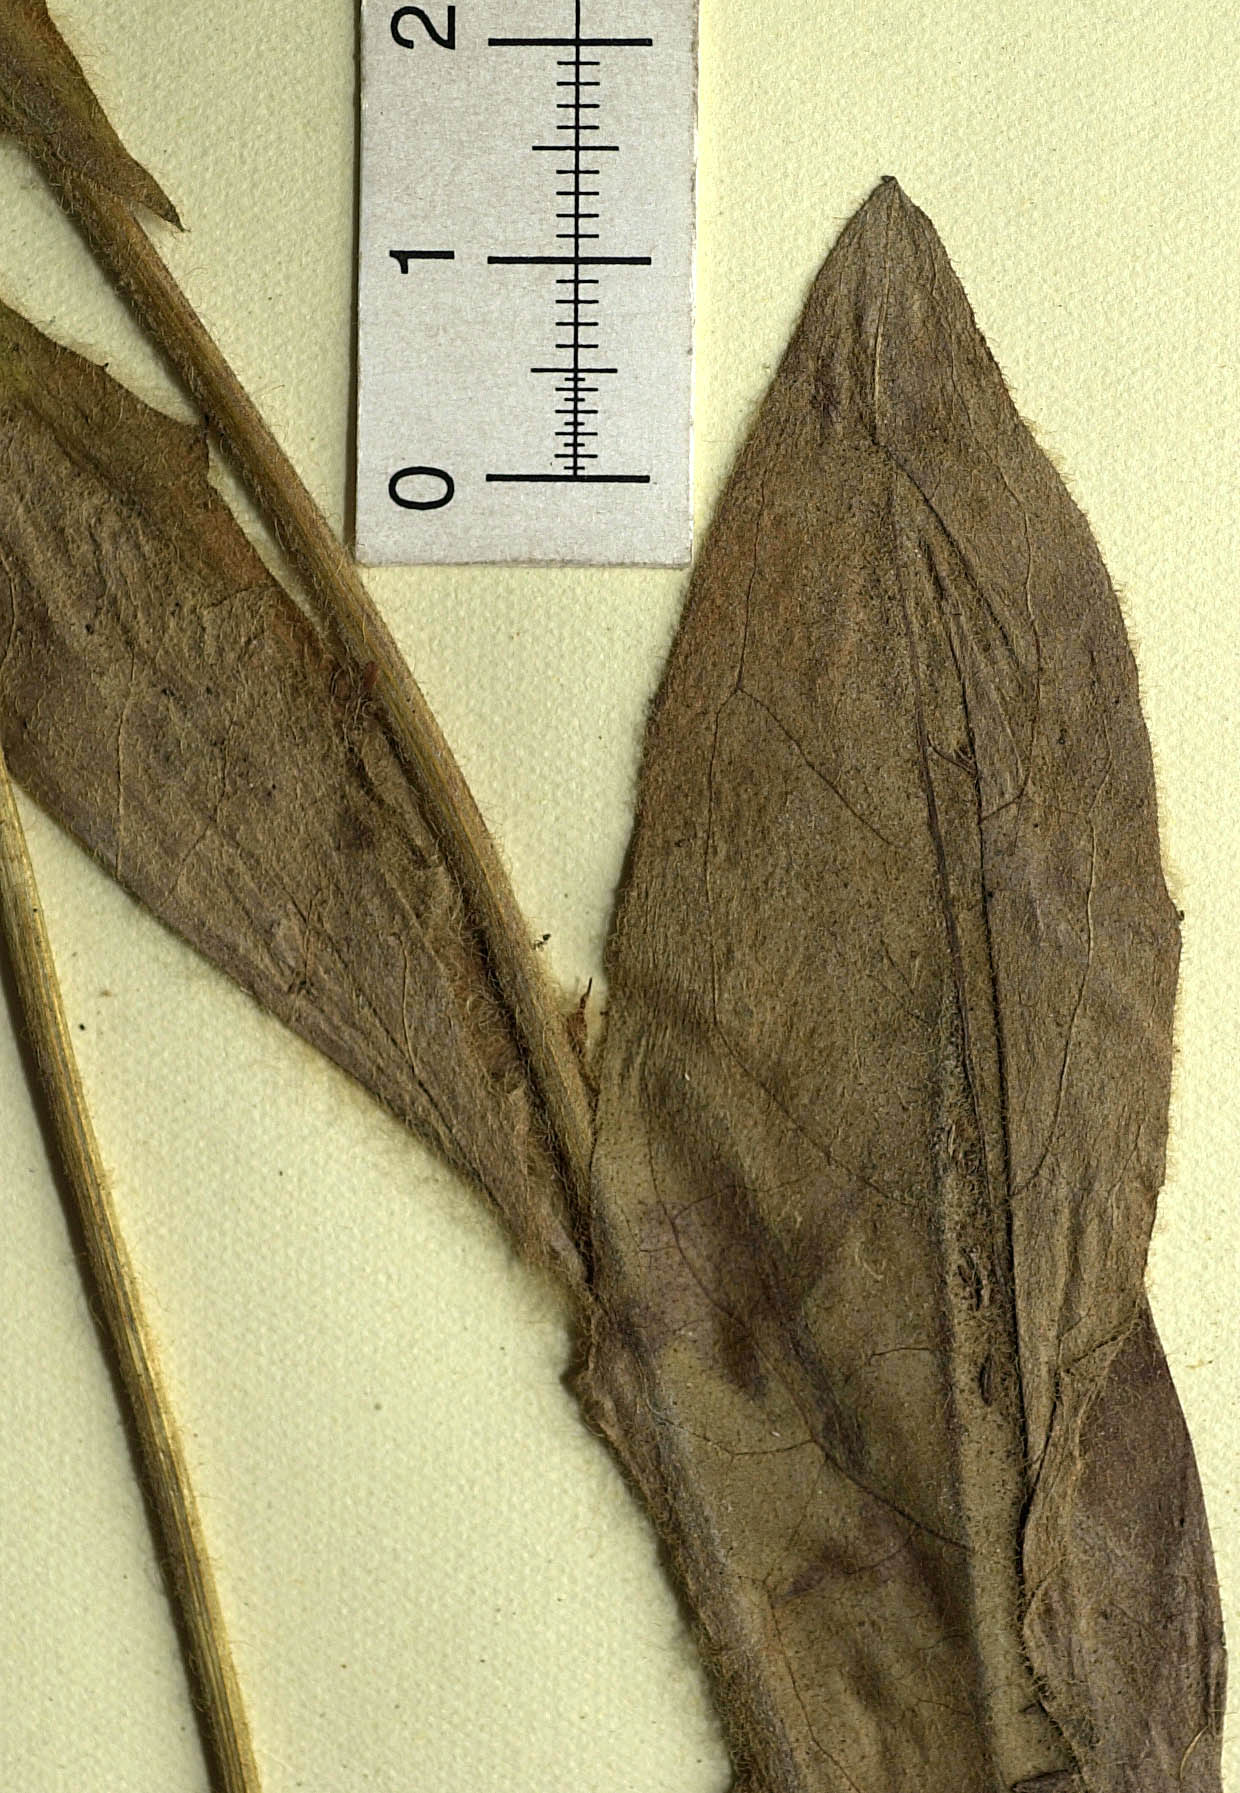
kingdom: Plantae
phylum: Tracheophyta
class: Magnoliopsida
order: Asterales
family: Asteraceae
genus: Hieracium
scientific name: Hieracium pyrgosense
